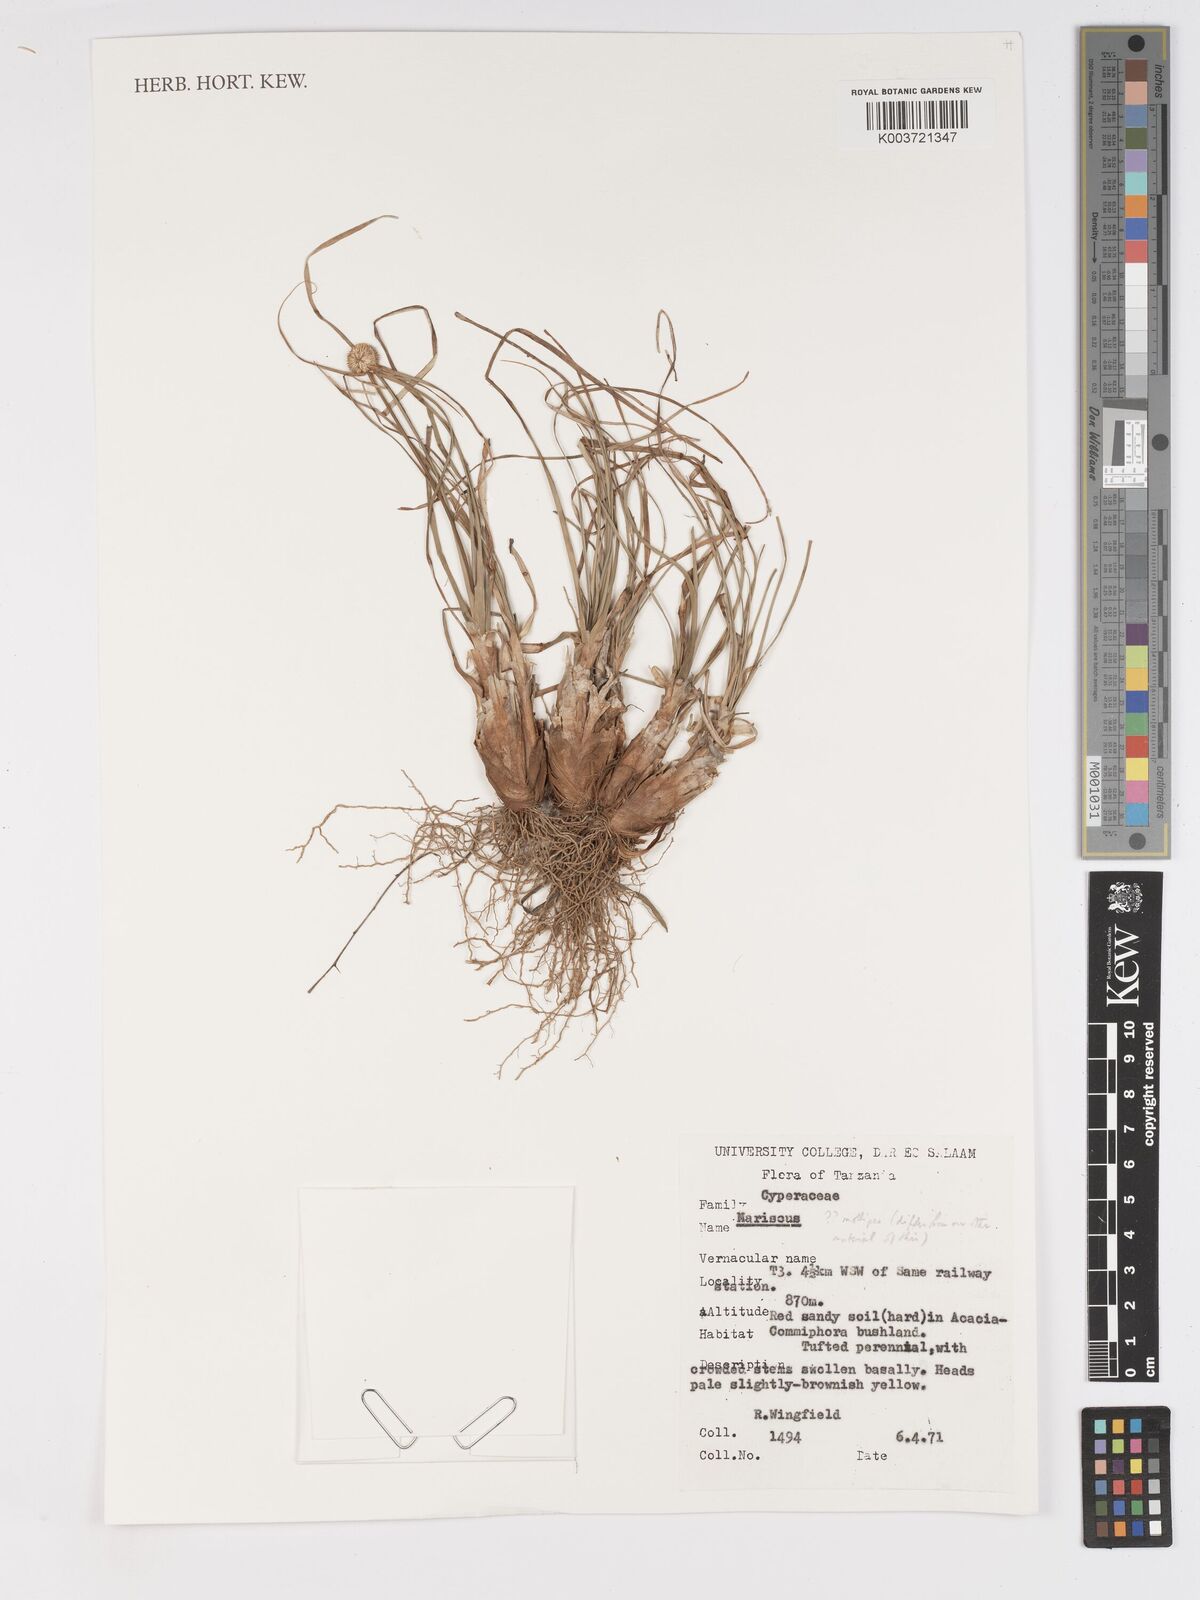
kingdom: Plantae
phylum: Tracheophyta
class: Liliopsida
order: Poales
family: Cyperaceae
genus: Cyperus
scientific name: Cyperus mollipes
